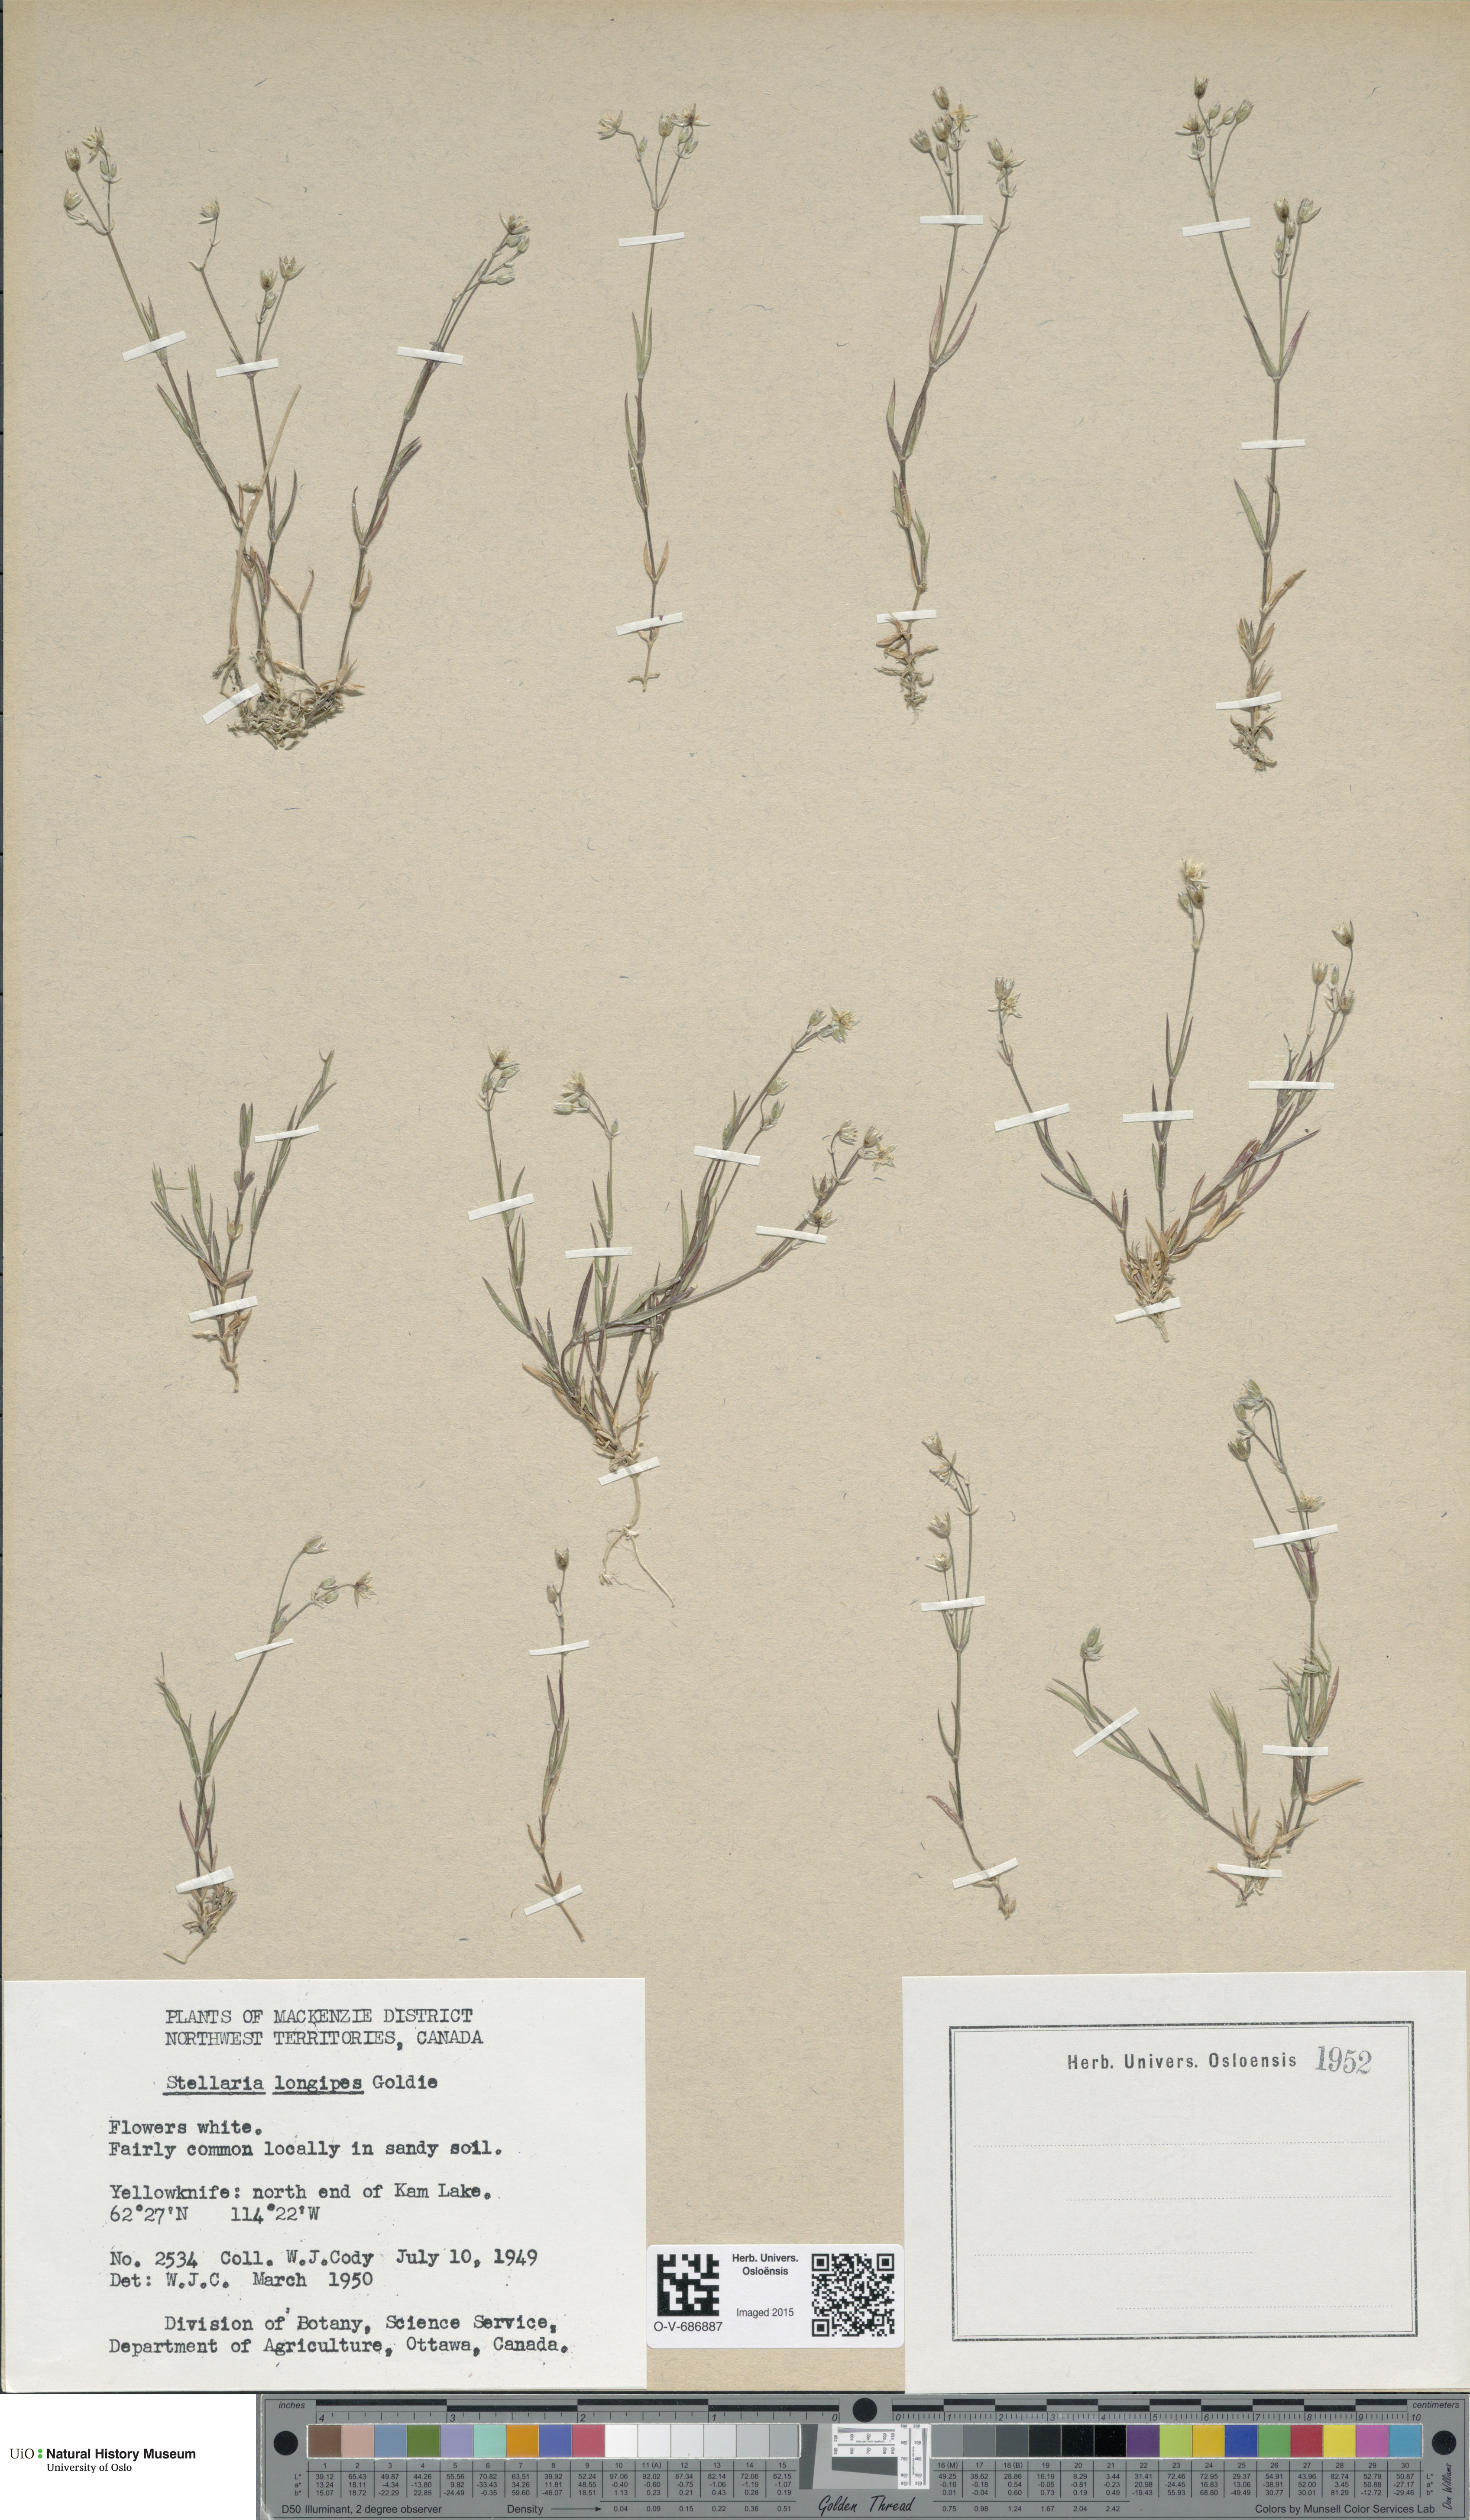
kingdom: Plantae
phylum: Tracheophyta
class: Magnoliopsida
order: Caryophyllales
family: Caryophyllaceae
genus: Stellaria
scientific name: Stellaria longipes
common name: Goldie's starwort
